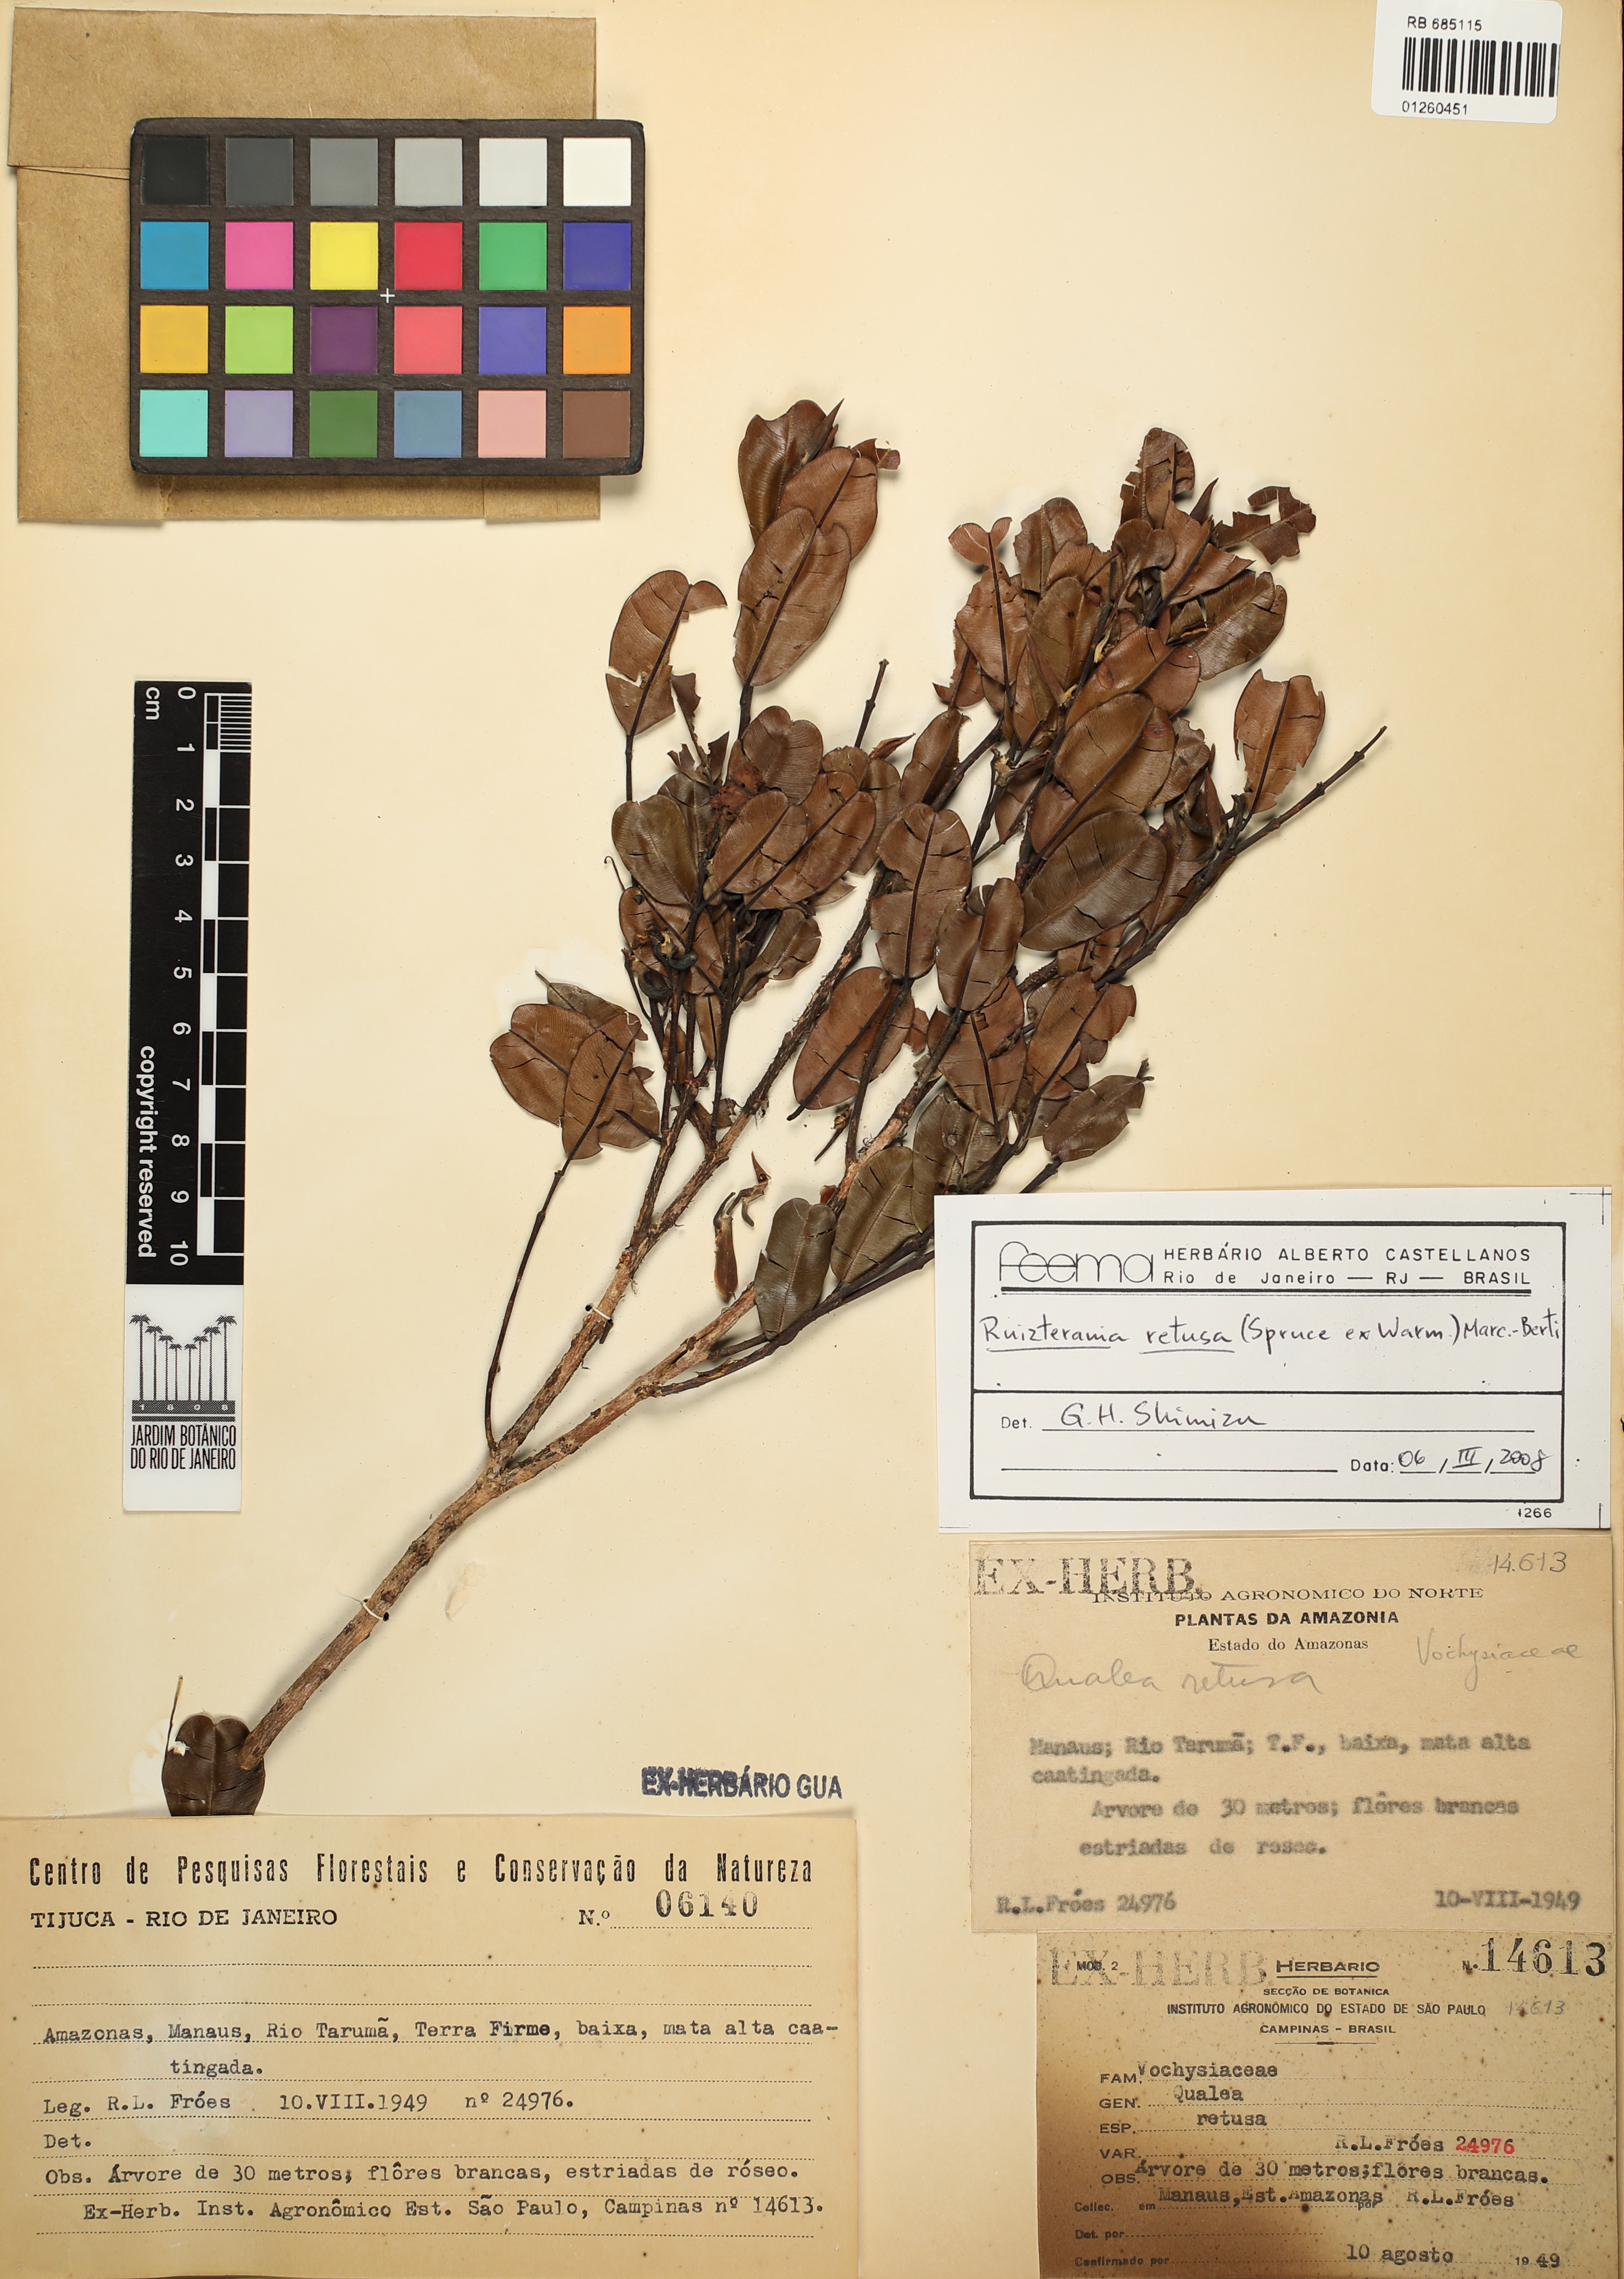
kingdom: Plantae
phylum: Tracheophyta
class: Magnoliopsida
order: Myrtales
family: Vochysiaceae
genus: Ruizterania
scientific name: Ruizterania retusa
